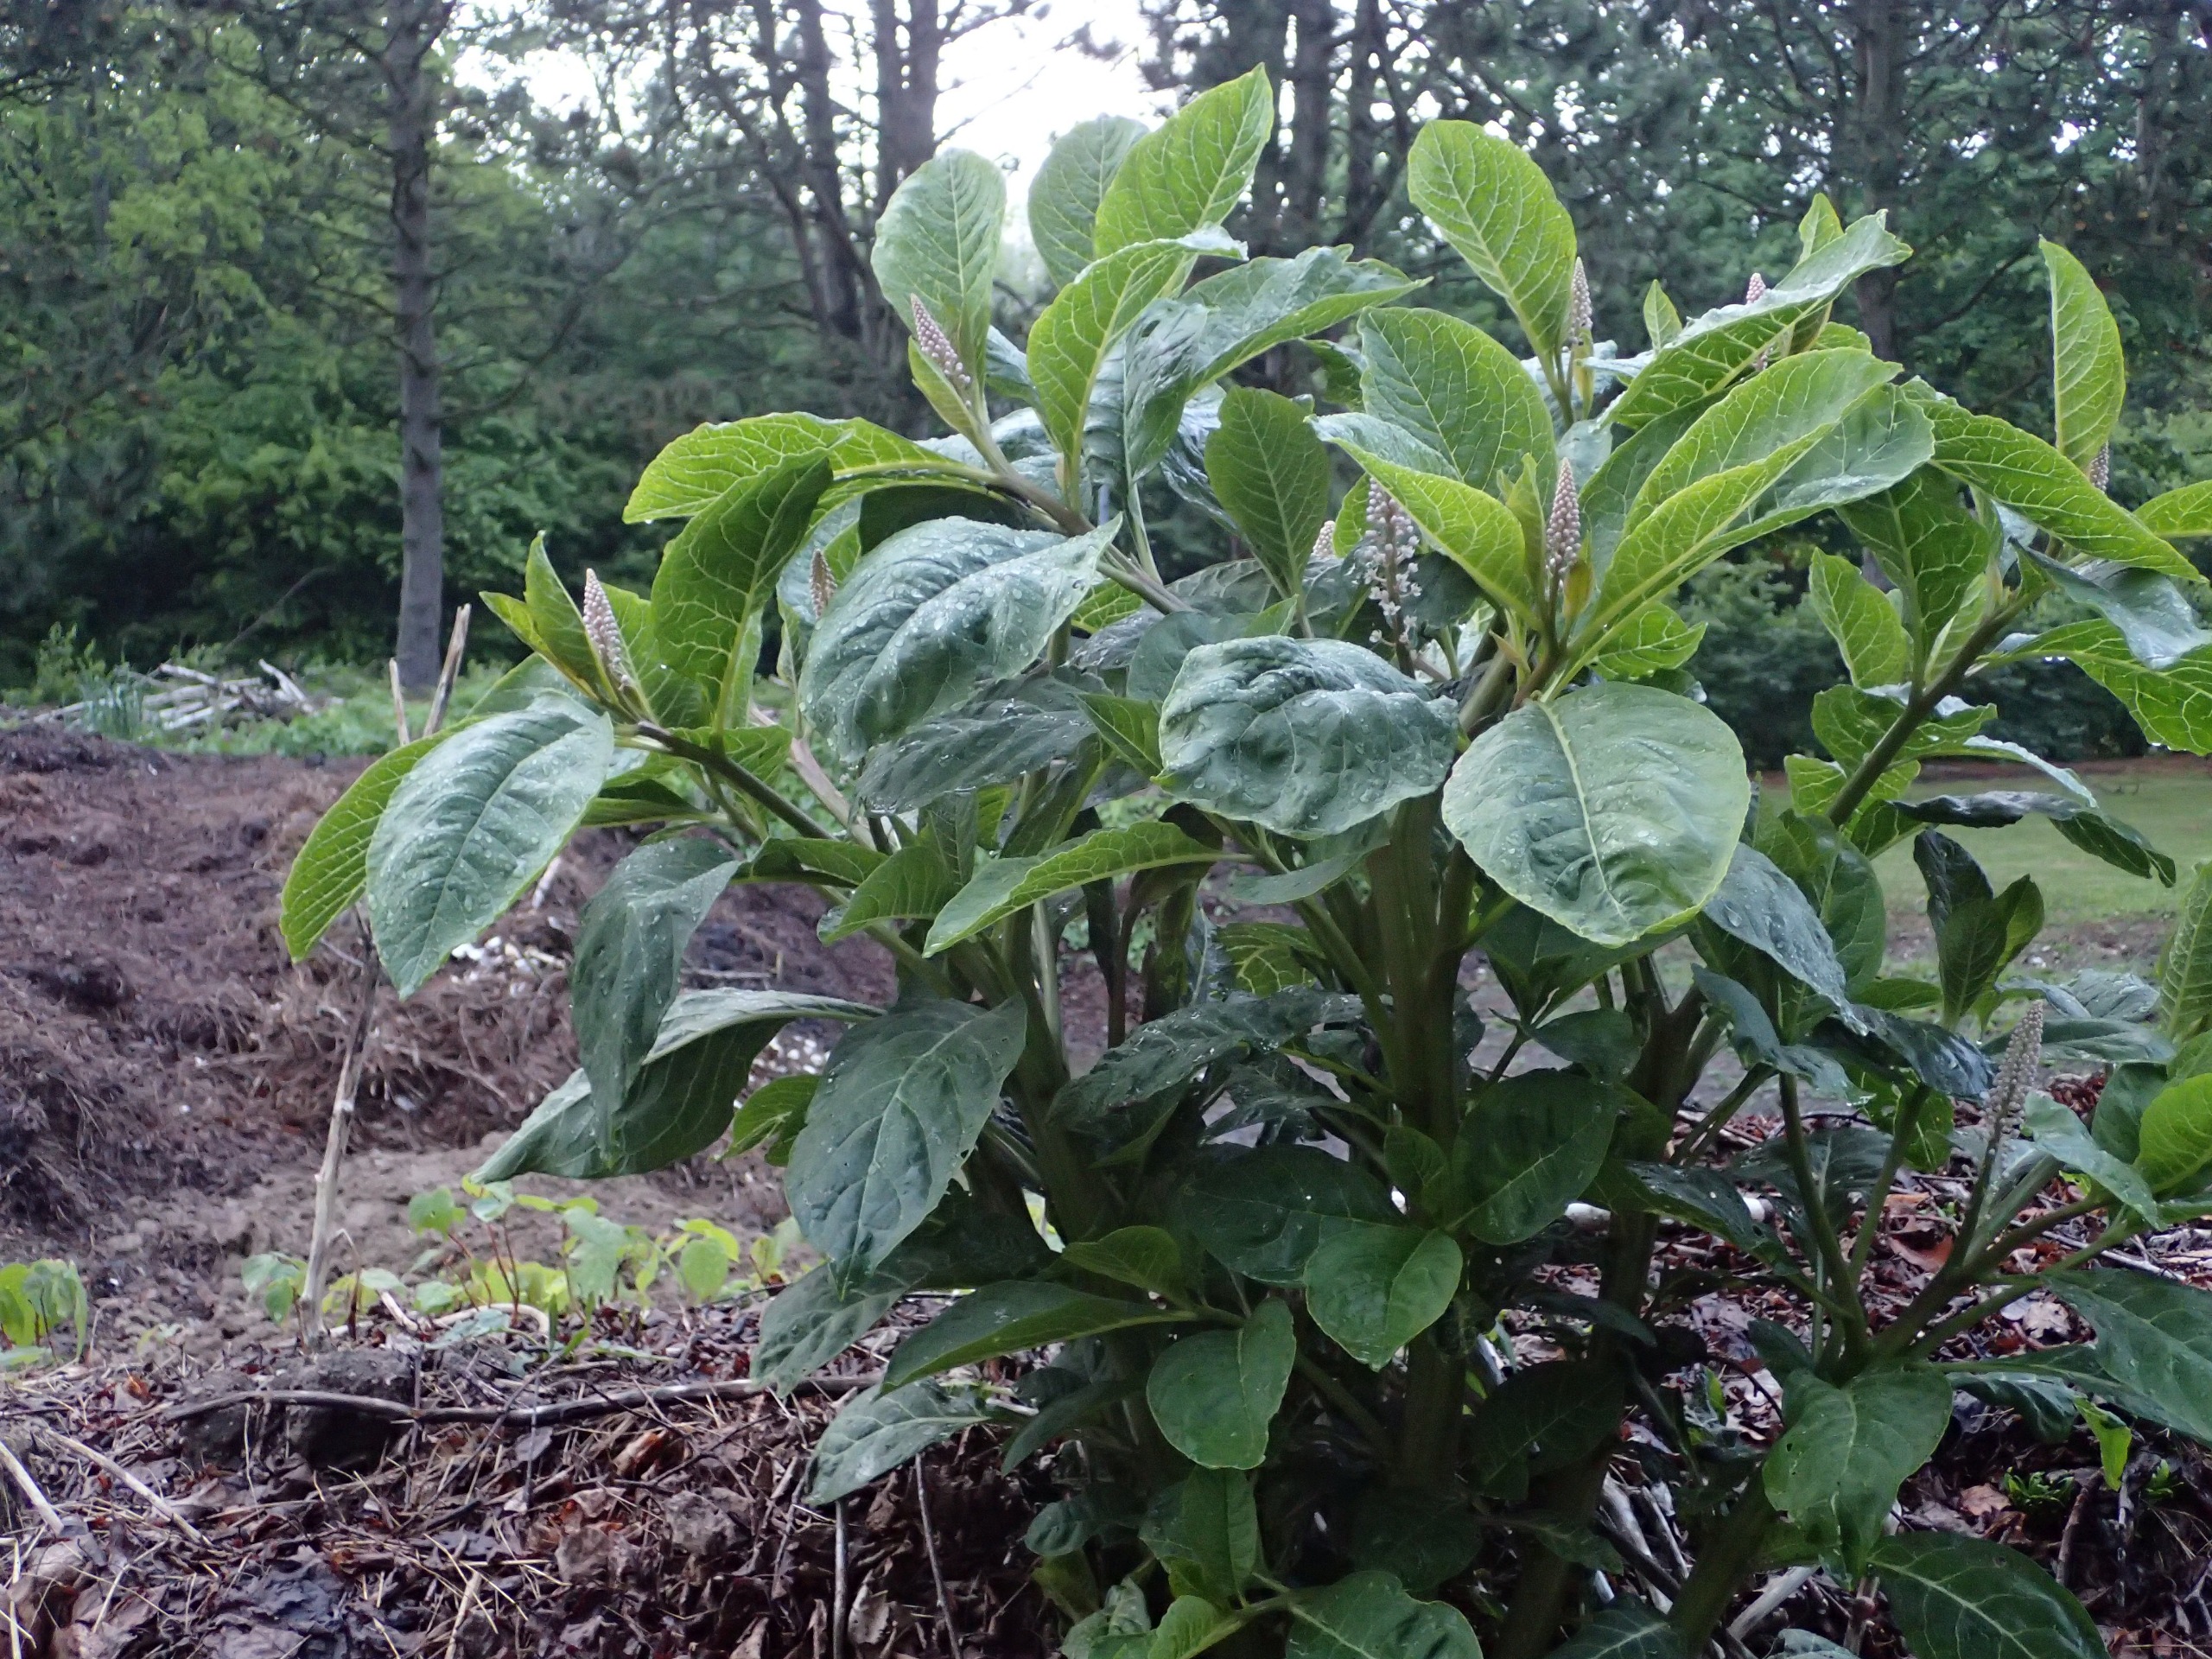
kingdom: Plantae
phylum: Tracheophyta
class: Magnoliopsida
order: Caryophyllales
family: Phytolaccaceae
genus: Phytolacca
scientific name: Phytolacca acinosa
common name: Asiatisk kermesbær
